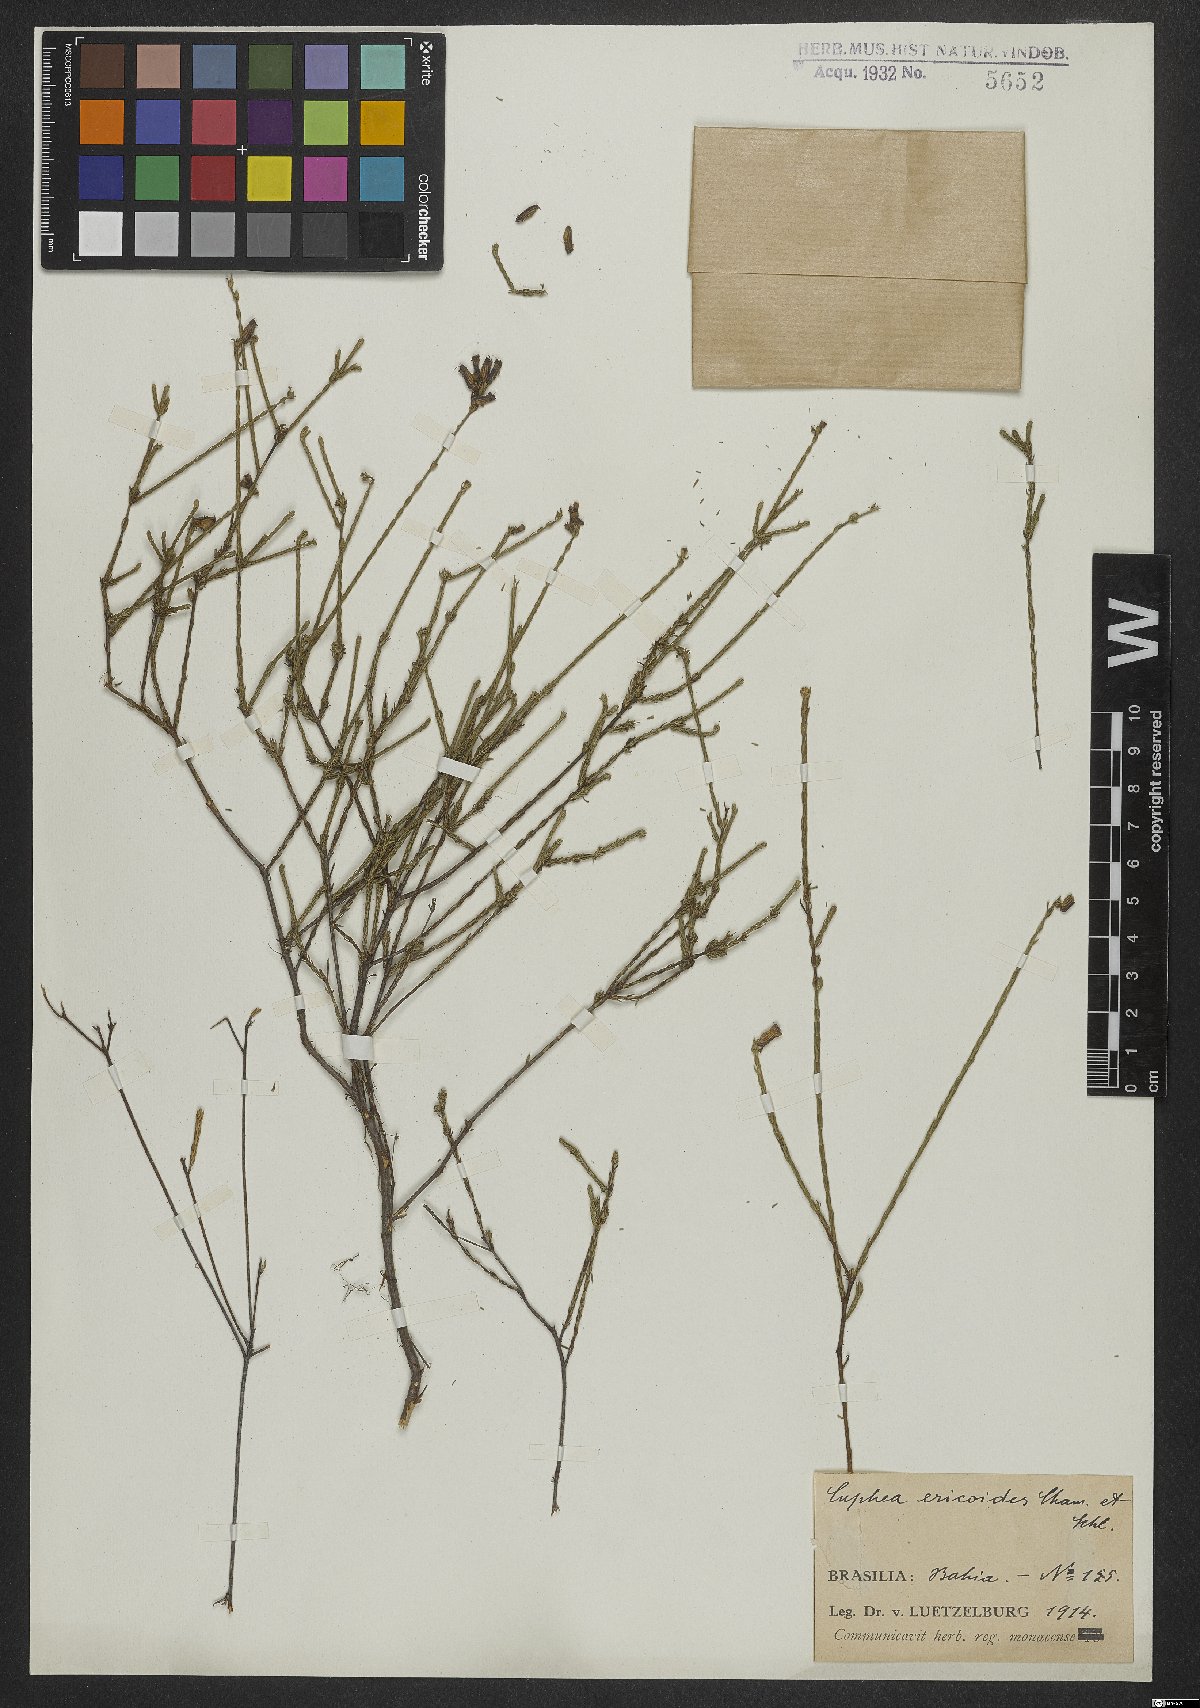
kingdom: Plantae
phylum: Tracheophyta
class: Magnoliopsida
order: Myrtales
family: Lythraceae
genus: Cuphea
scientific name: Cuphea ericoides
